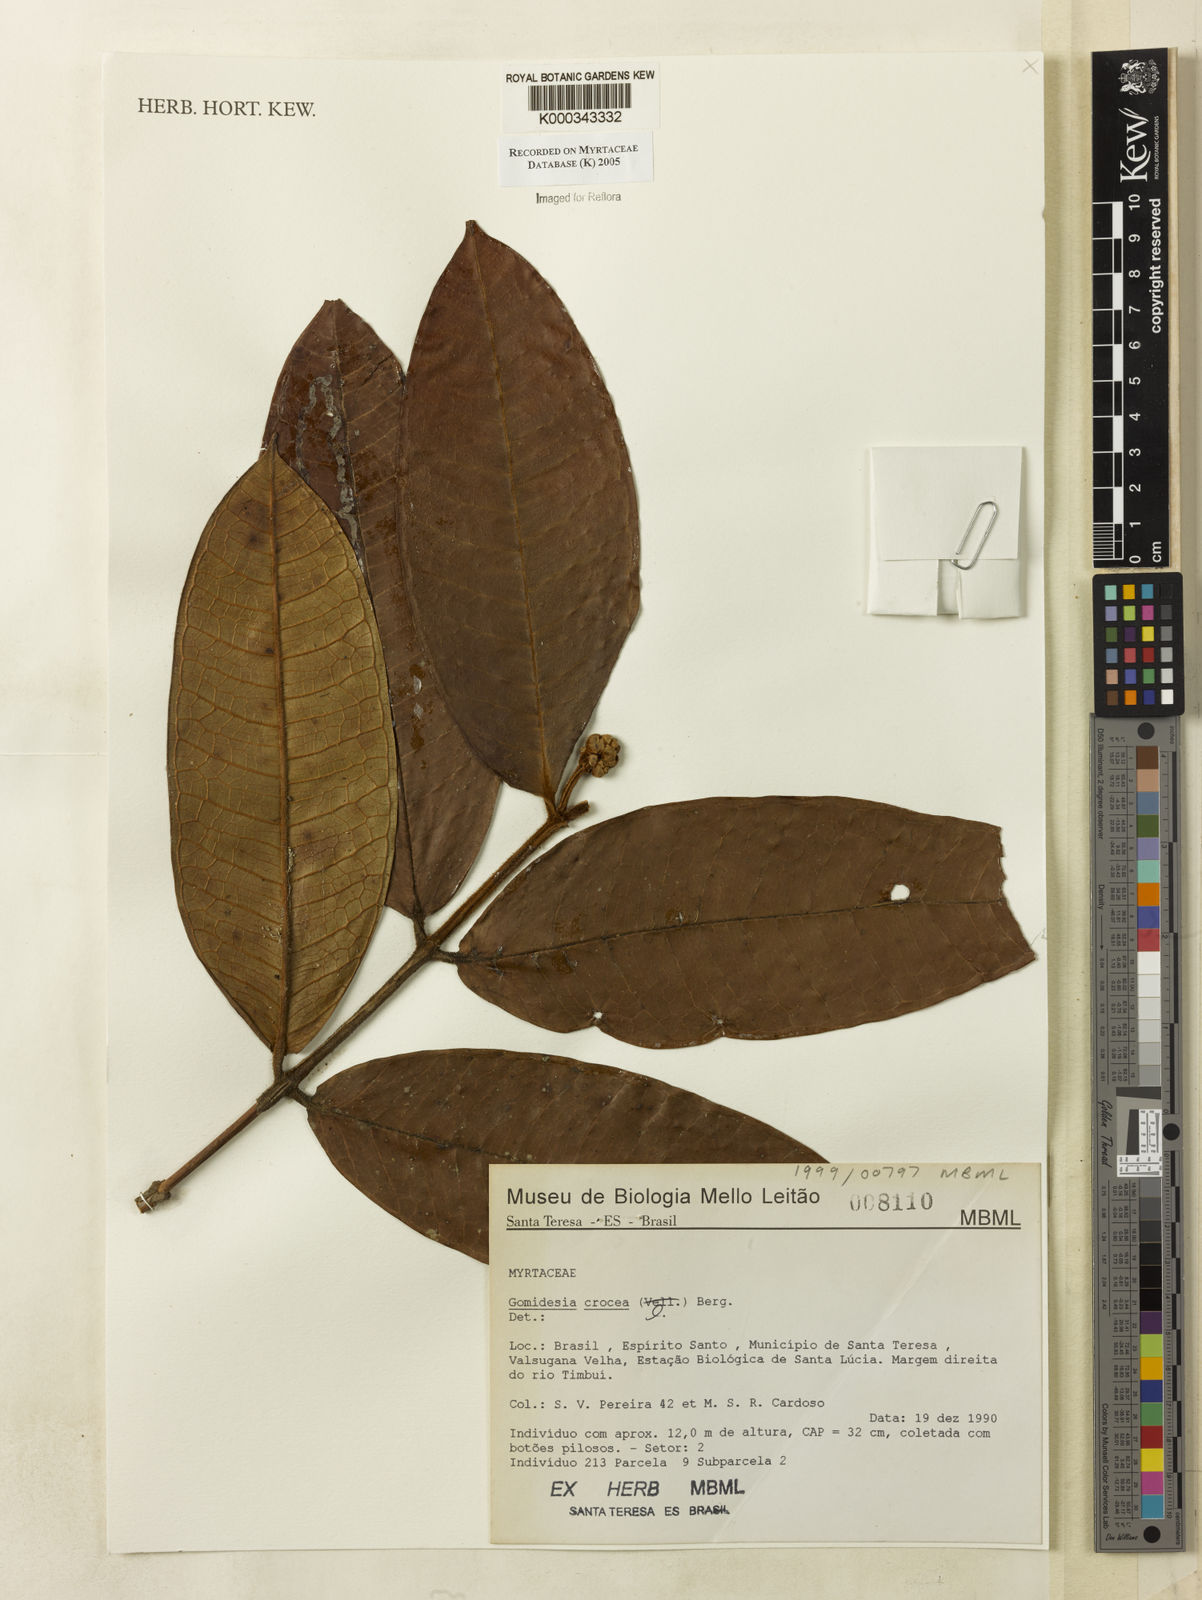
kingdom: Plantae
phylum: Tracheophyta
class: Magnoliopsida
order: Myrtales
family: Myrtaceae
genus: Myrcia
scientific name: Myrcia amplexicaulis
